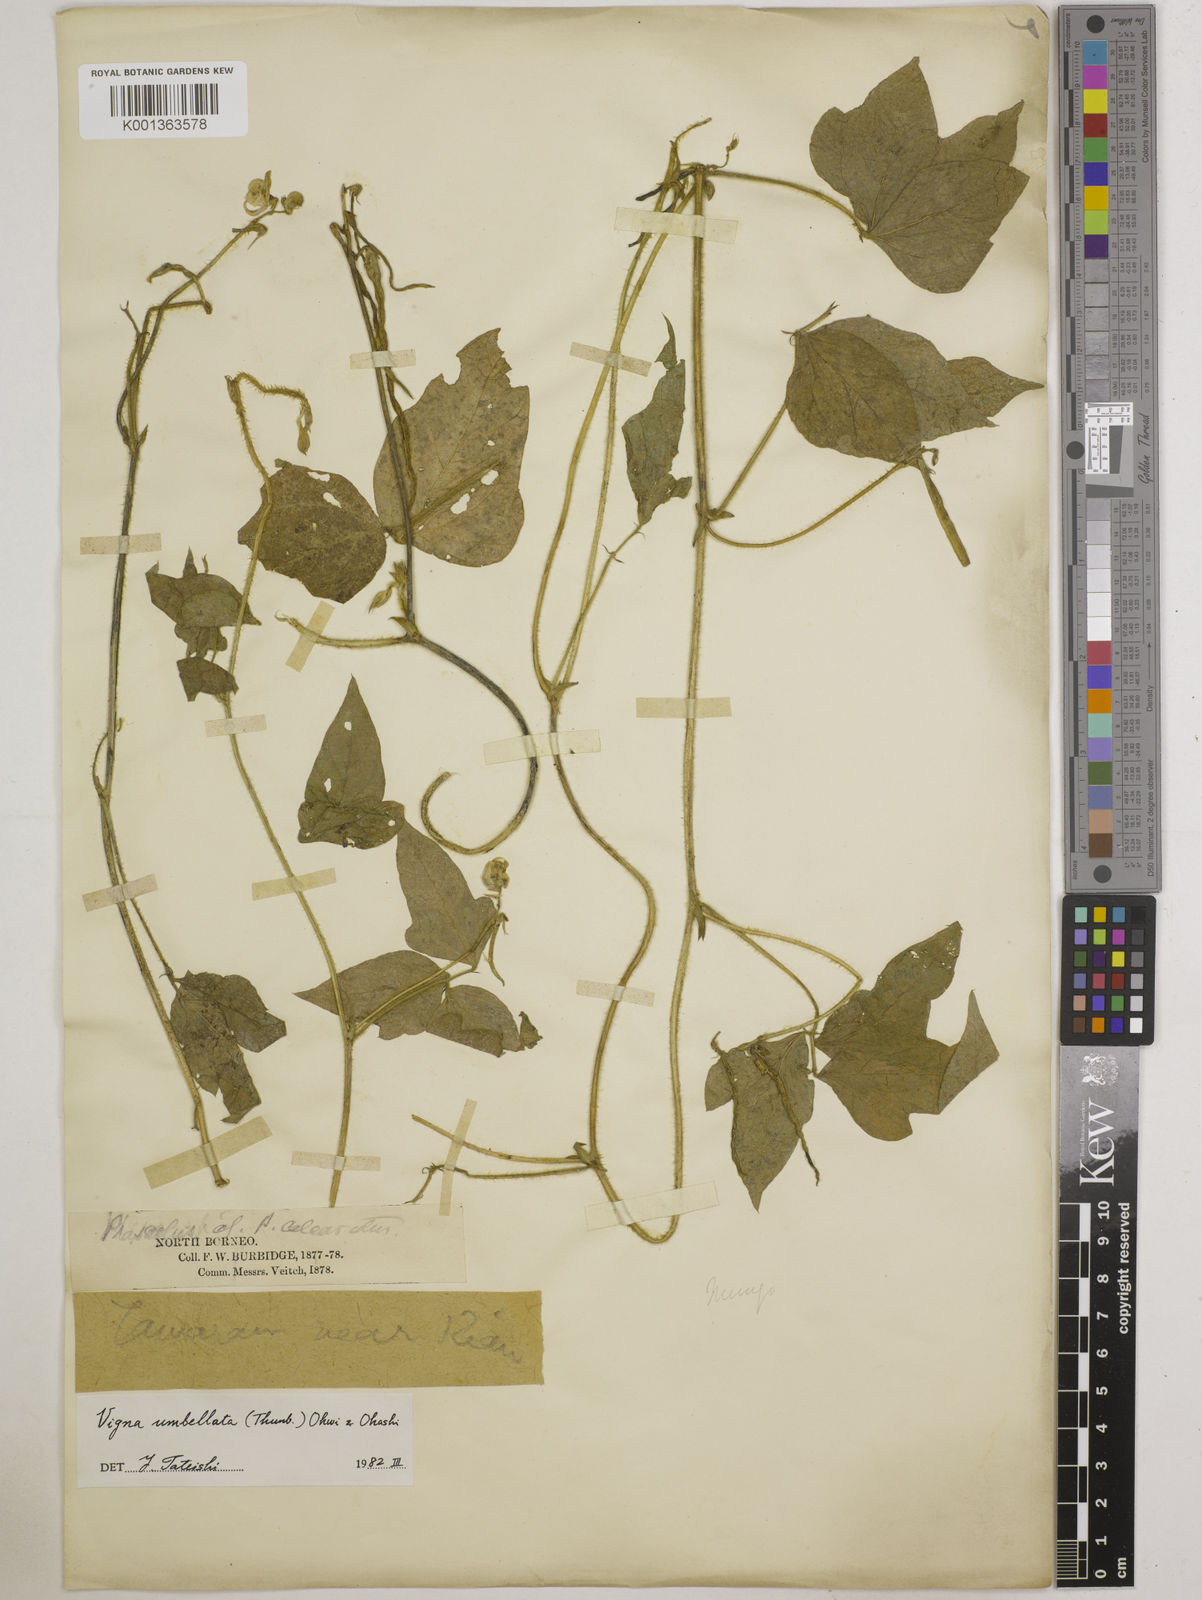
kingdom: Plantae
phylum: Tracheophyta
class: Magnoliopsida
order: Fabales
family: Fabaceae
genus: Vigna
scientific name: Vigna umbellata
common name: Oriental-bean
